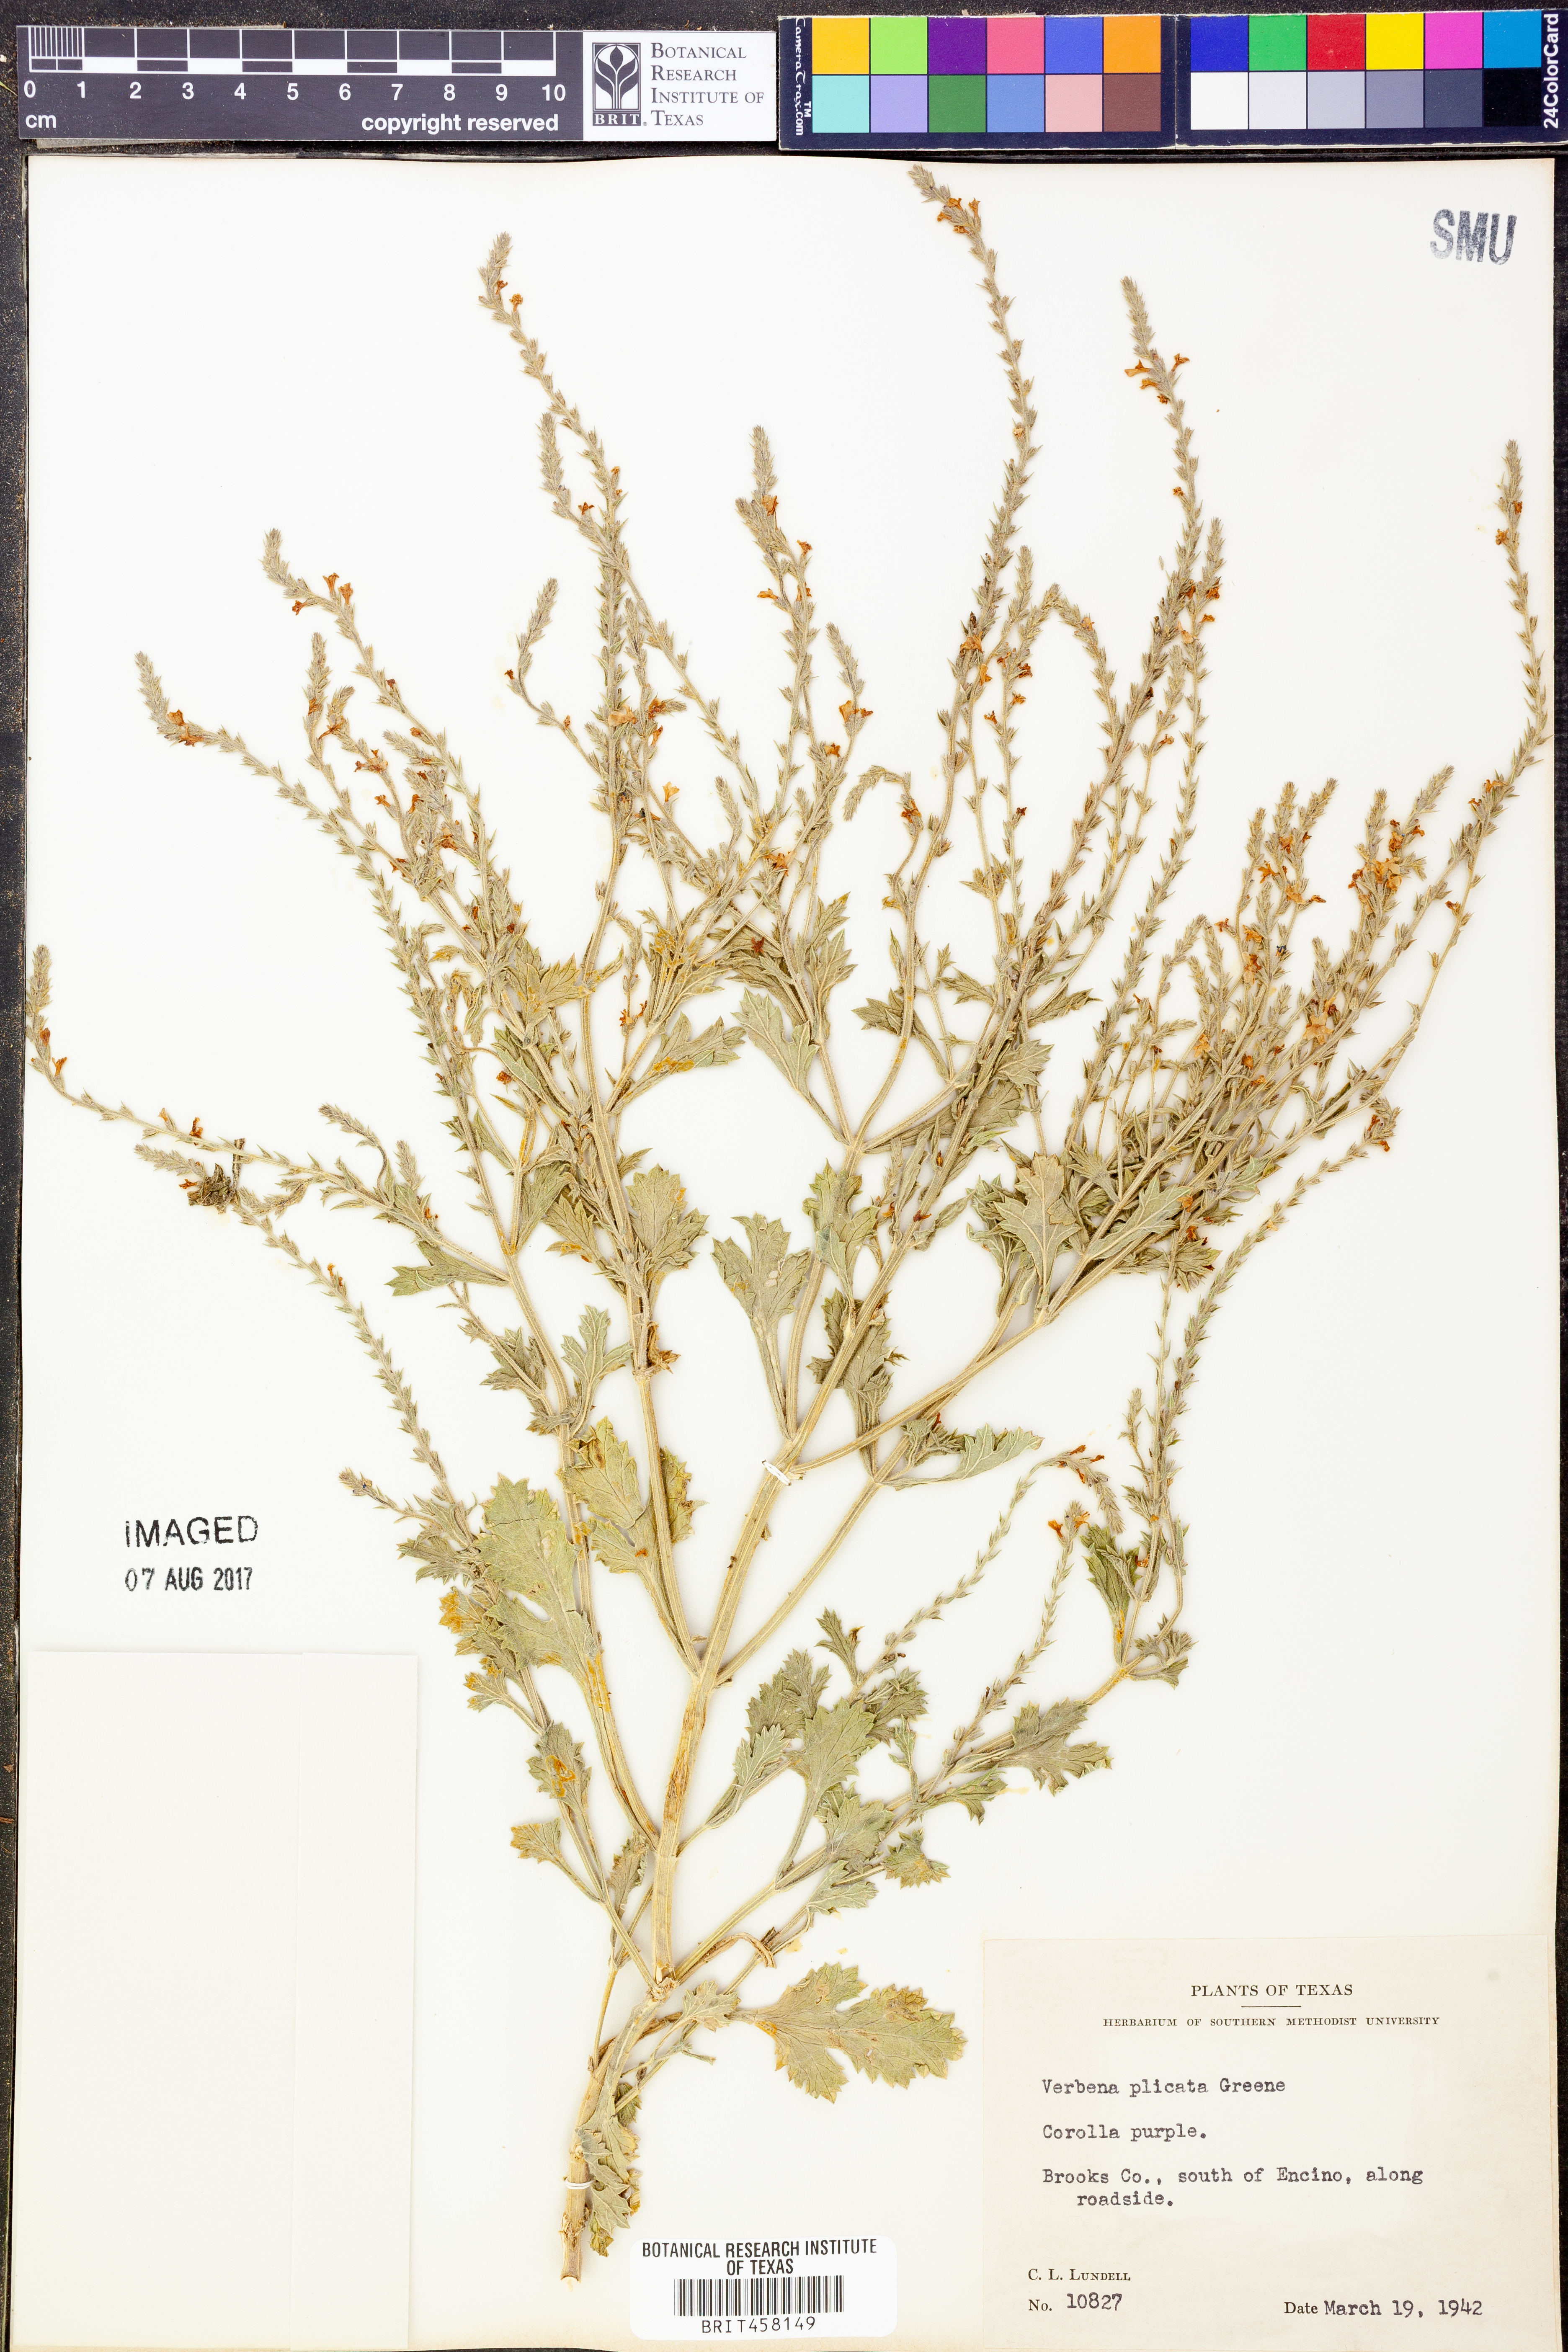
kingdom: Plantae
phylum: Tracheophyta
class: Magnoliopsida
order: Lamiales
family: Verbenaceae
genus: Verbena
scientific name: Verbena plicata
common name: Fan-leaf vervain
